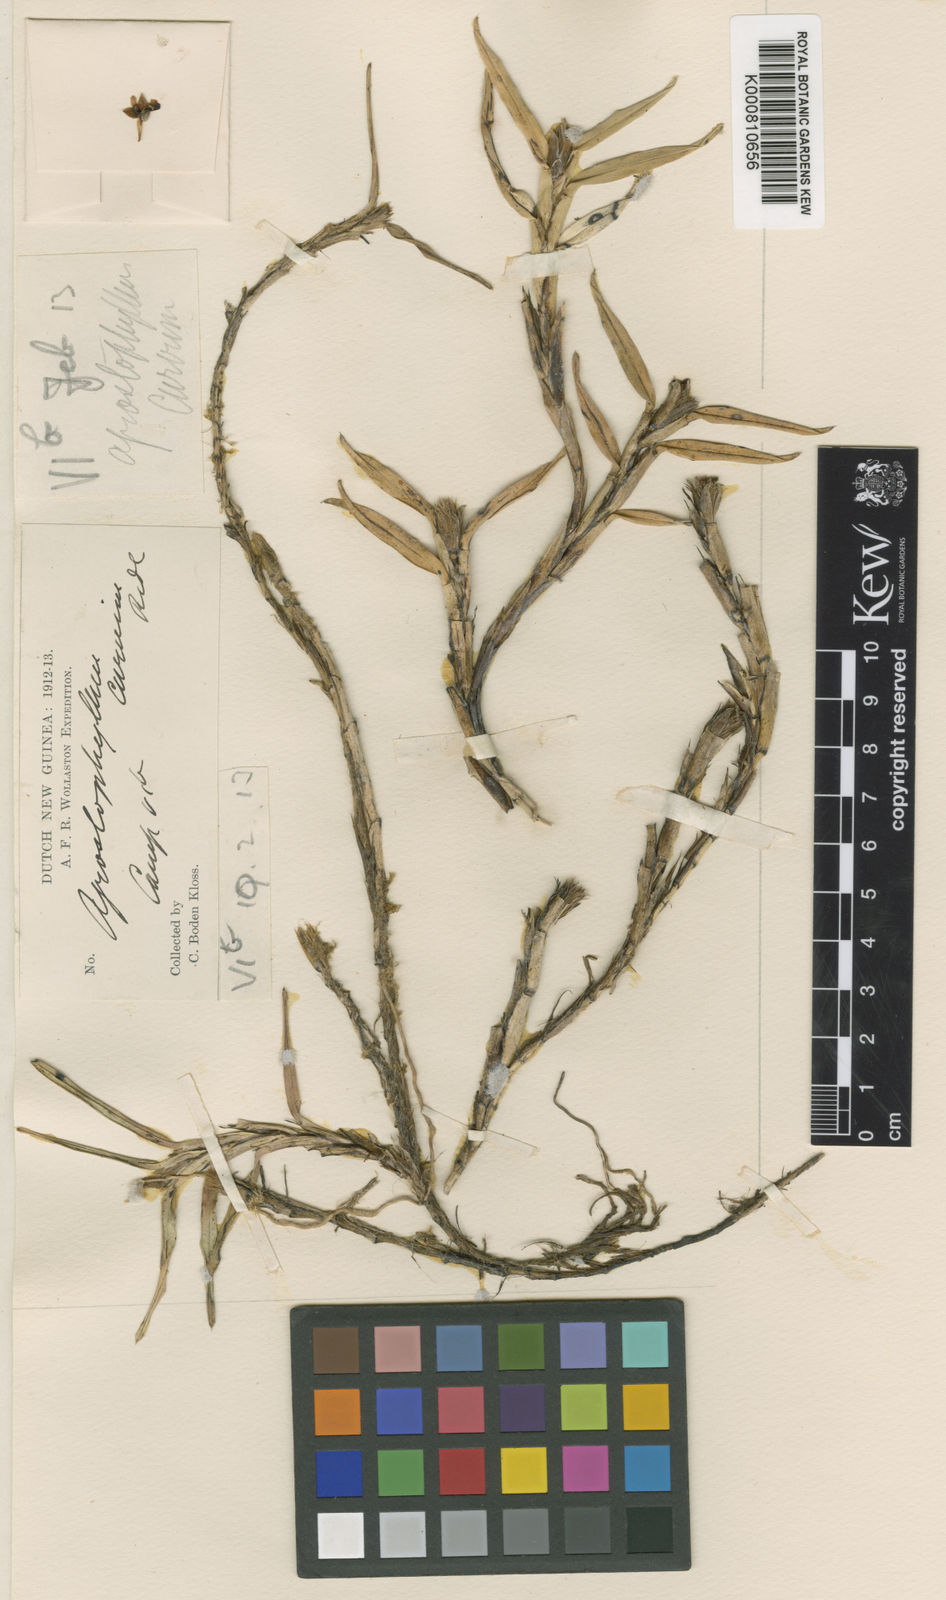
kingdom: Plantae
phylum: Tracheophyta
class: Liliopsida
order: Asparagales
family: Orchidaceae
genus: Agrostophyllum
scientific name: Agrostophyllum superpositum
